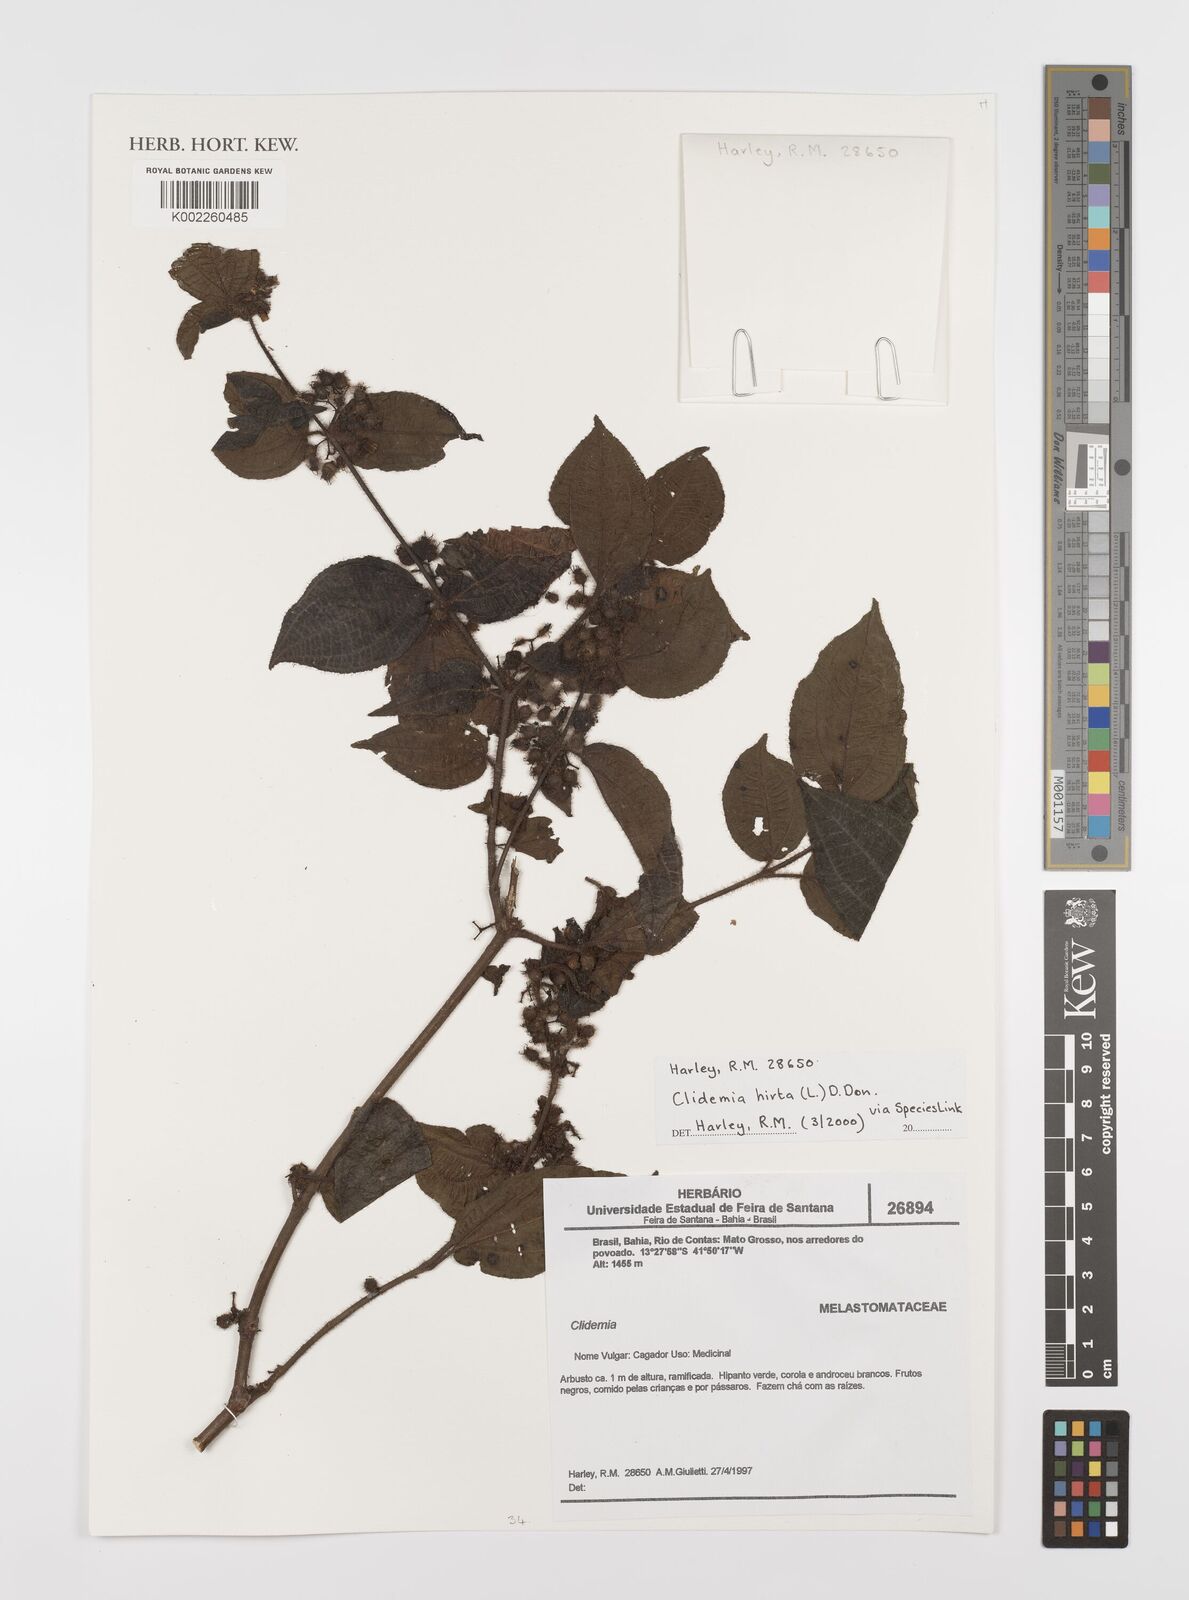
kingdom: Plantae
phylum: Tracheophyta
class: Magnoliopsida
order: Myrtales
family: Melastomataceae
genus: Miconia
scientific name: Miconia crenata
